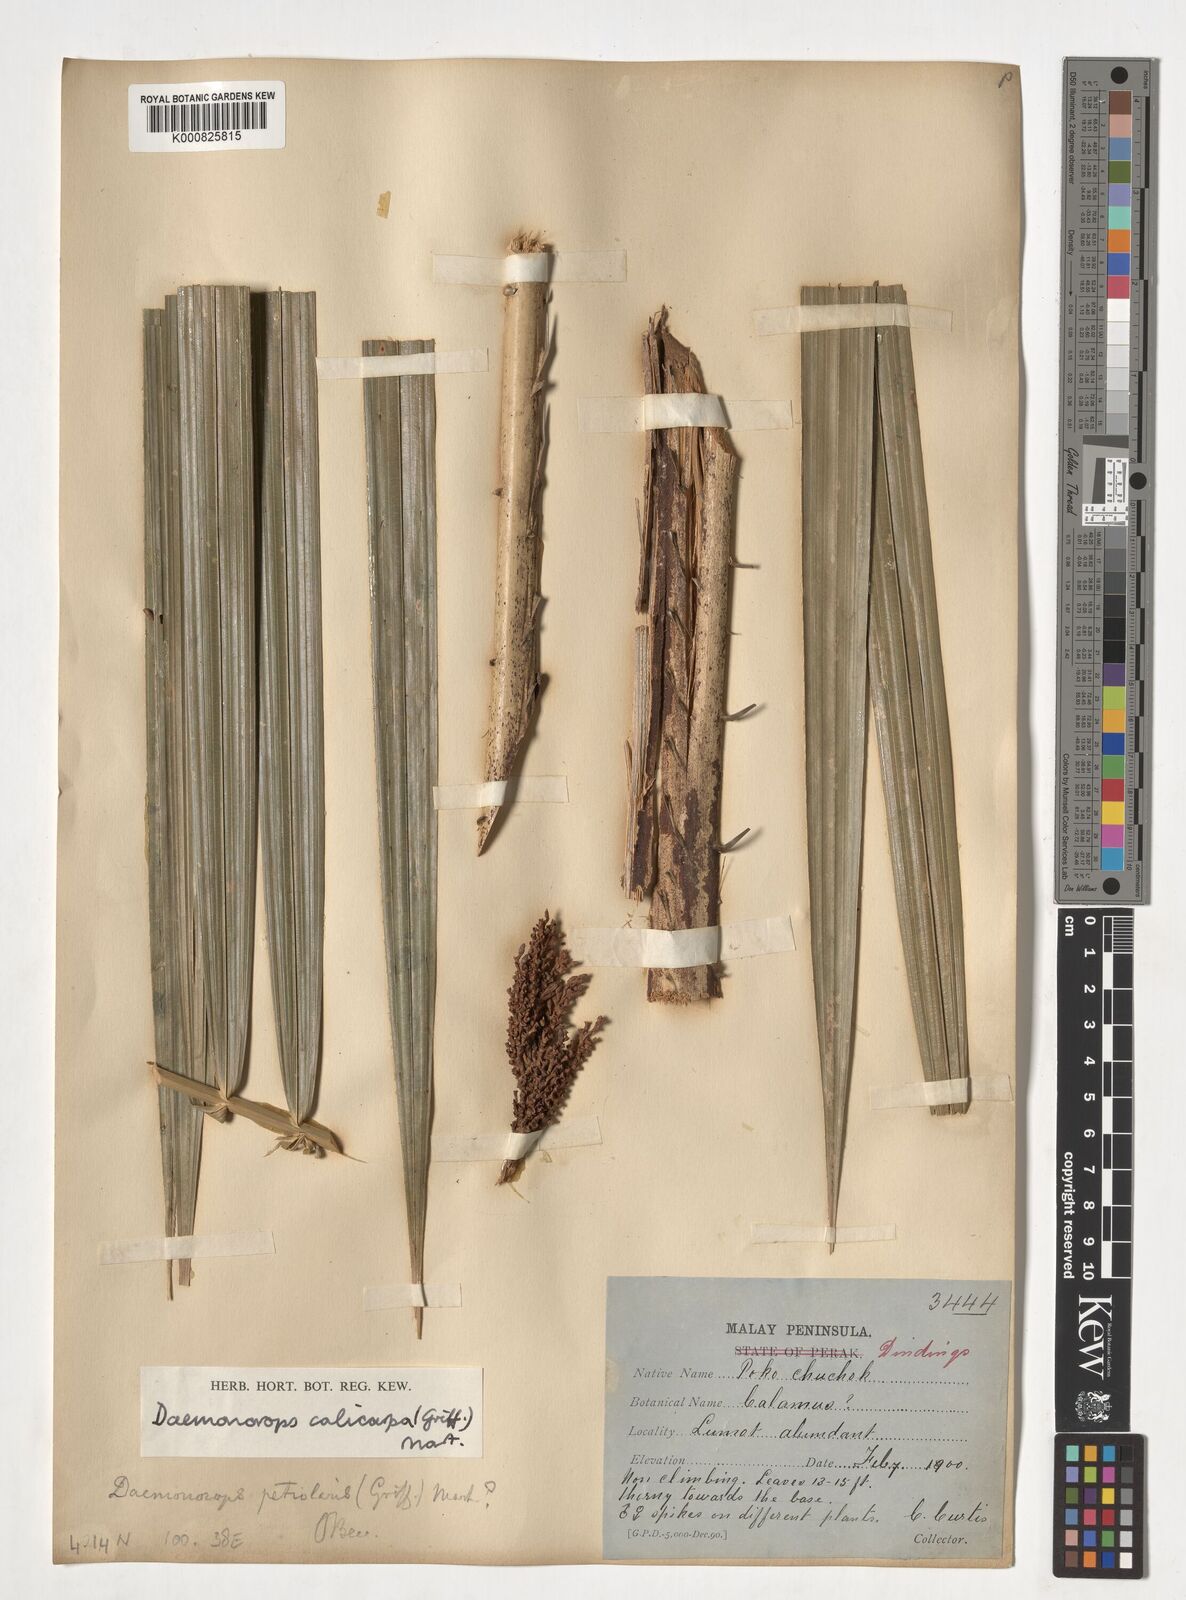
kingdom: Plantae
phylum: Tracheophyta
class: Liliopsida
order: Arecales
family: Arecaceae
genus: Calamus
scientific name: Calamus calicarpus
